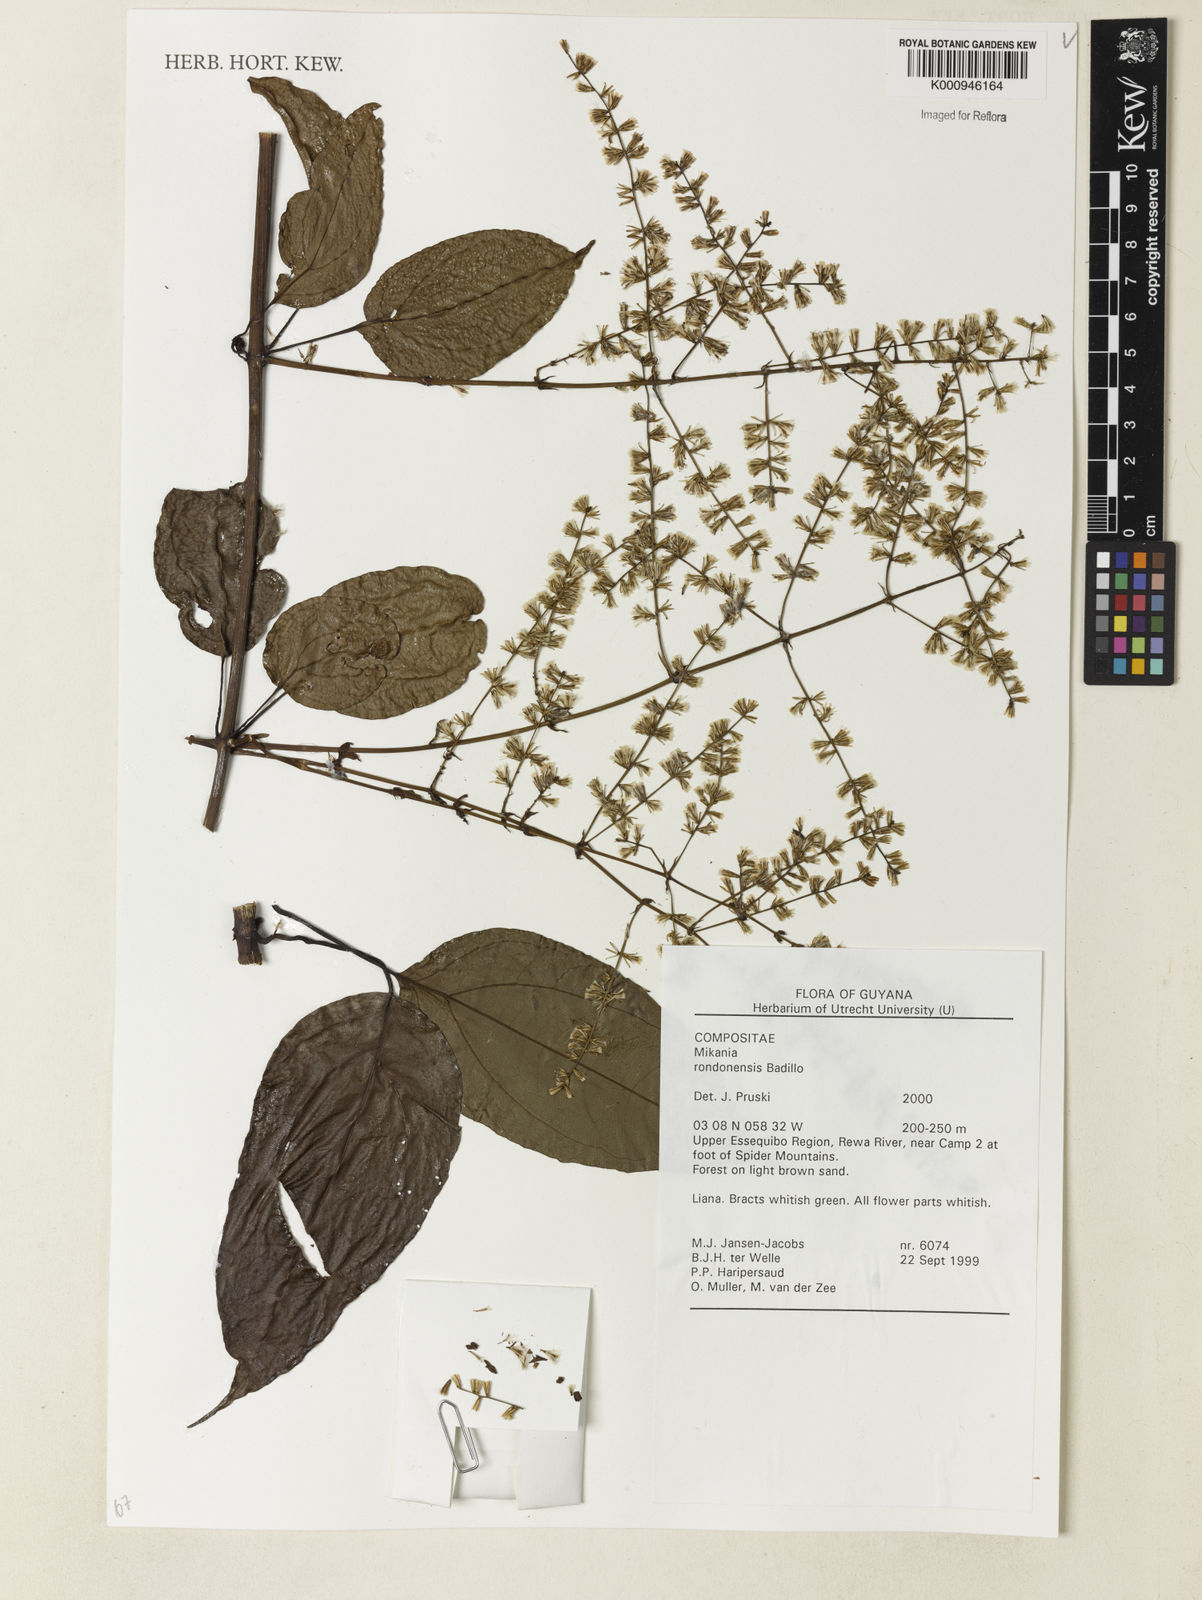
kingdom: Plantae
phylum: Tracheophyta
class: Magnoliopsida
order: Asterales
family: Asteraceae
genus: Mikania
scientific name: Mikania rondonensis
